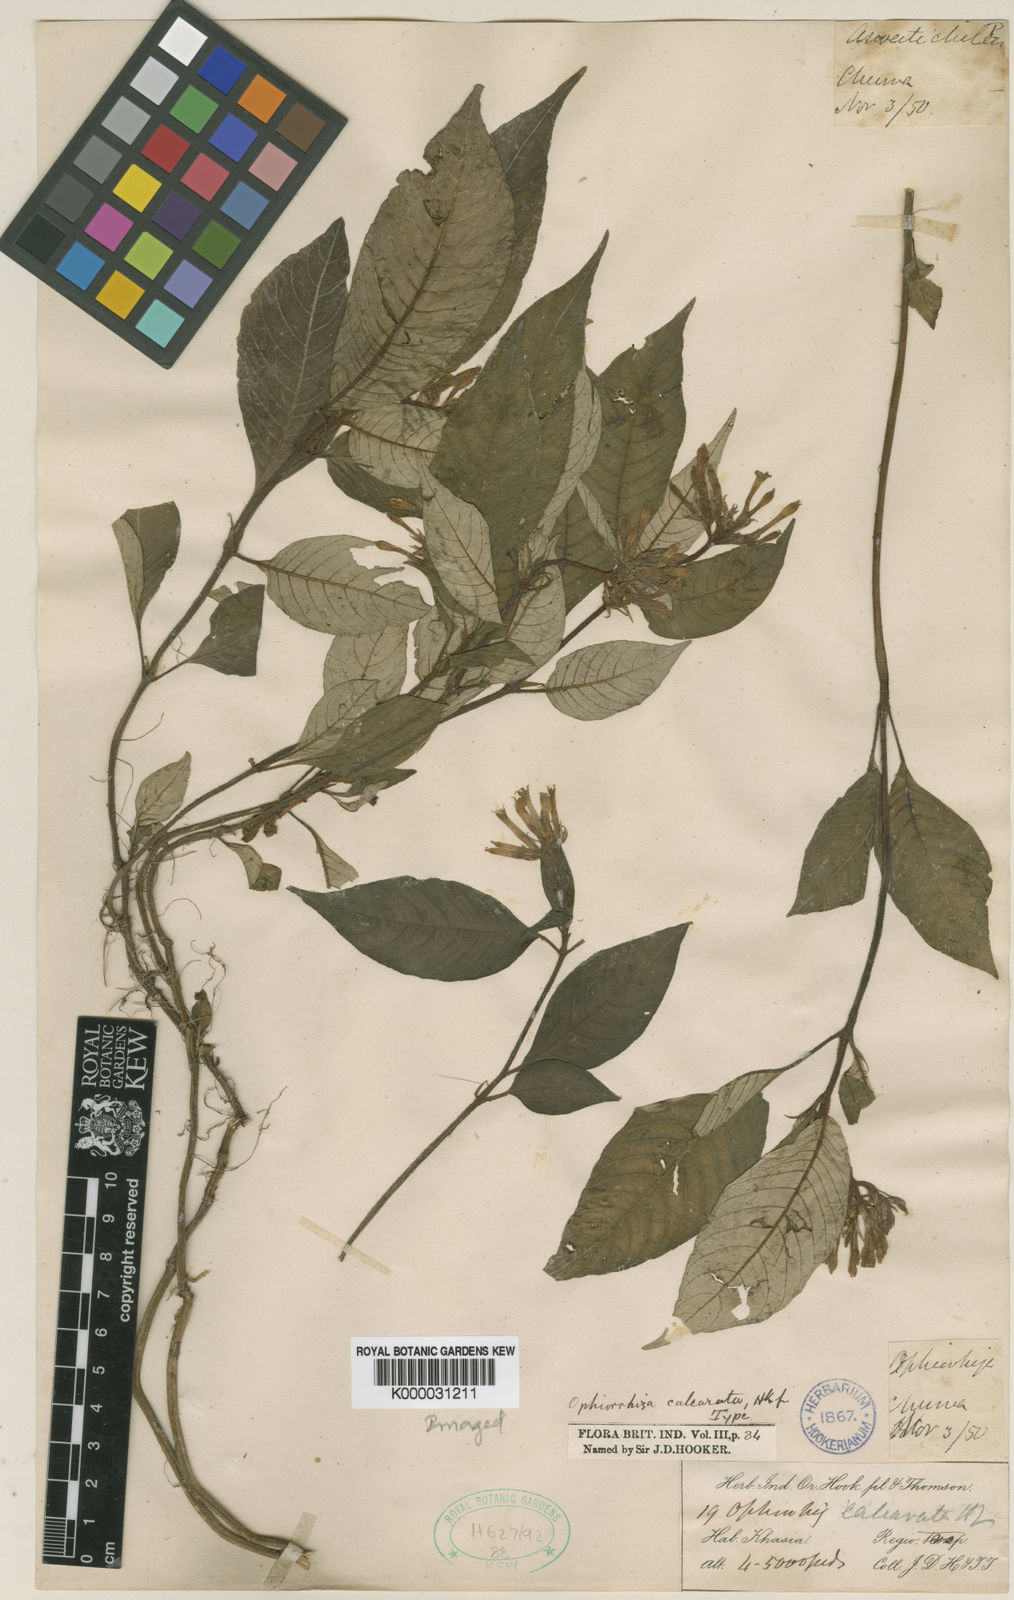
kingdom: Plantae
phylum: Tracheophyta
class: Magnoliopsida
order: Gentianales
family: Rubiaceae
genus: Ophiorrhiza
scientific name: Ophiorrhiza repens
